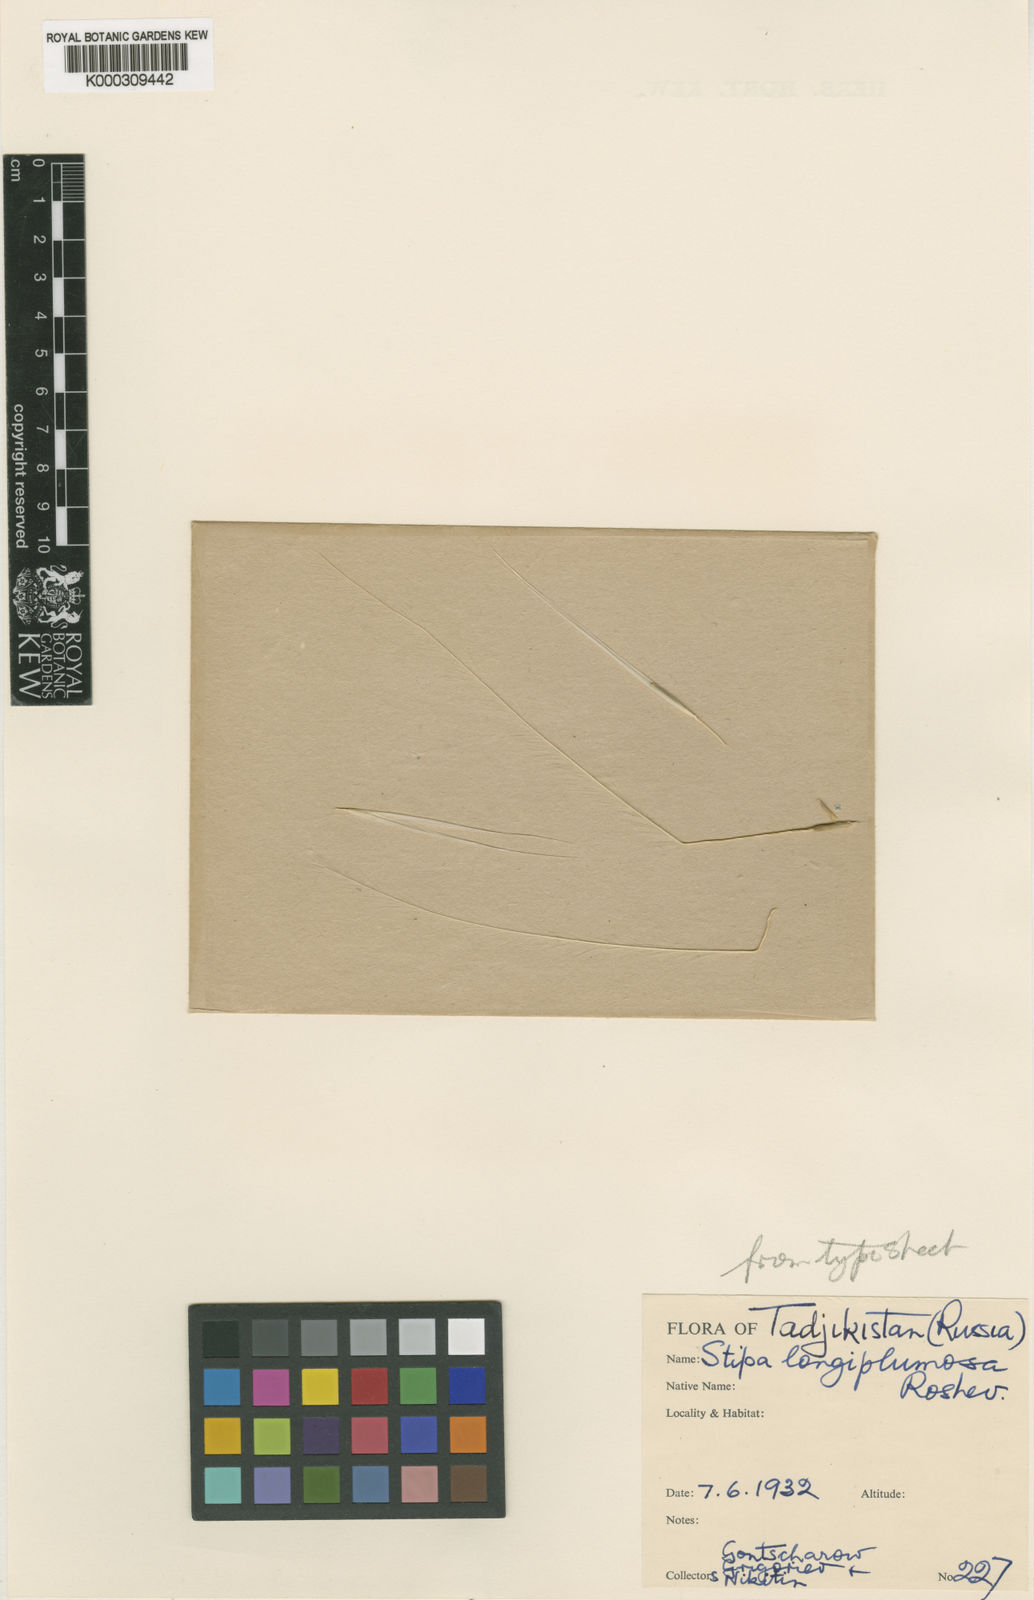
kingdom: Plantae
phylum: Tracheophyta
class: Liliopsida
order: Poales
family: Poaceae
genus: Stipa
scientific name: Stipa
